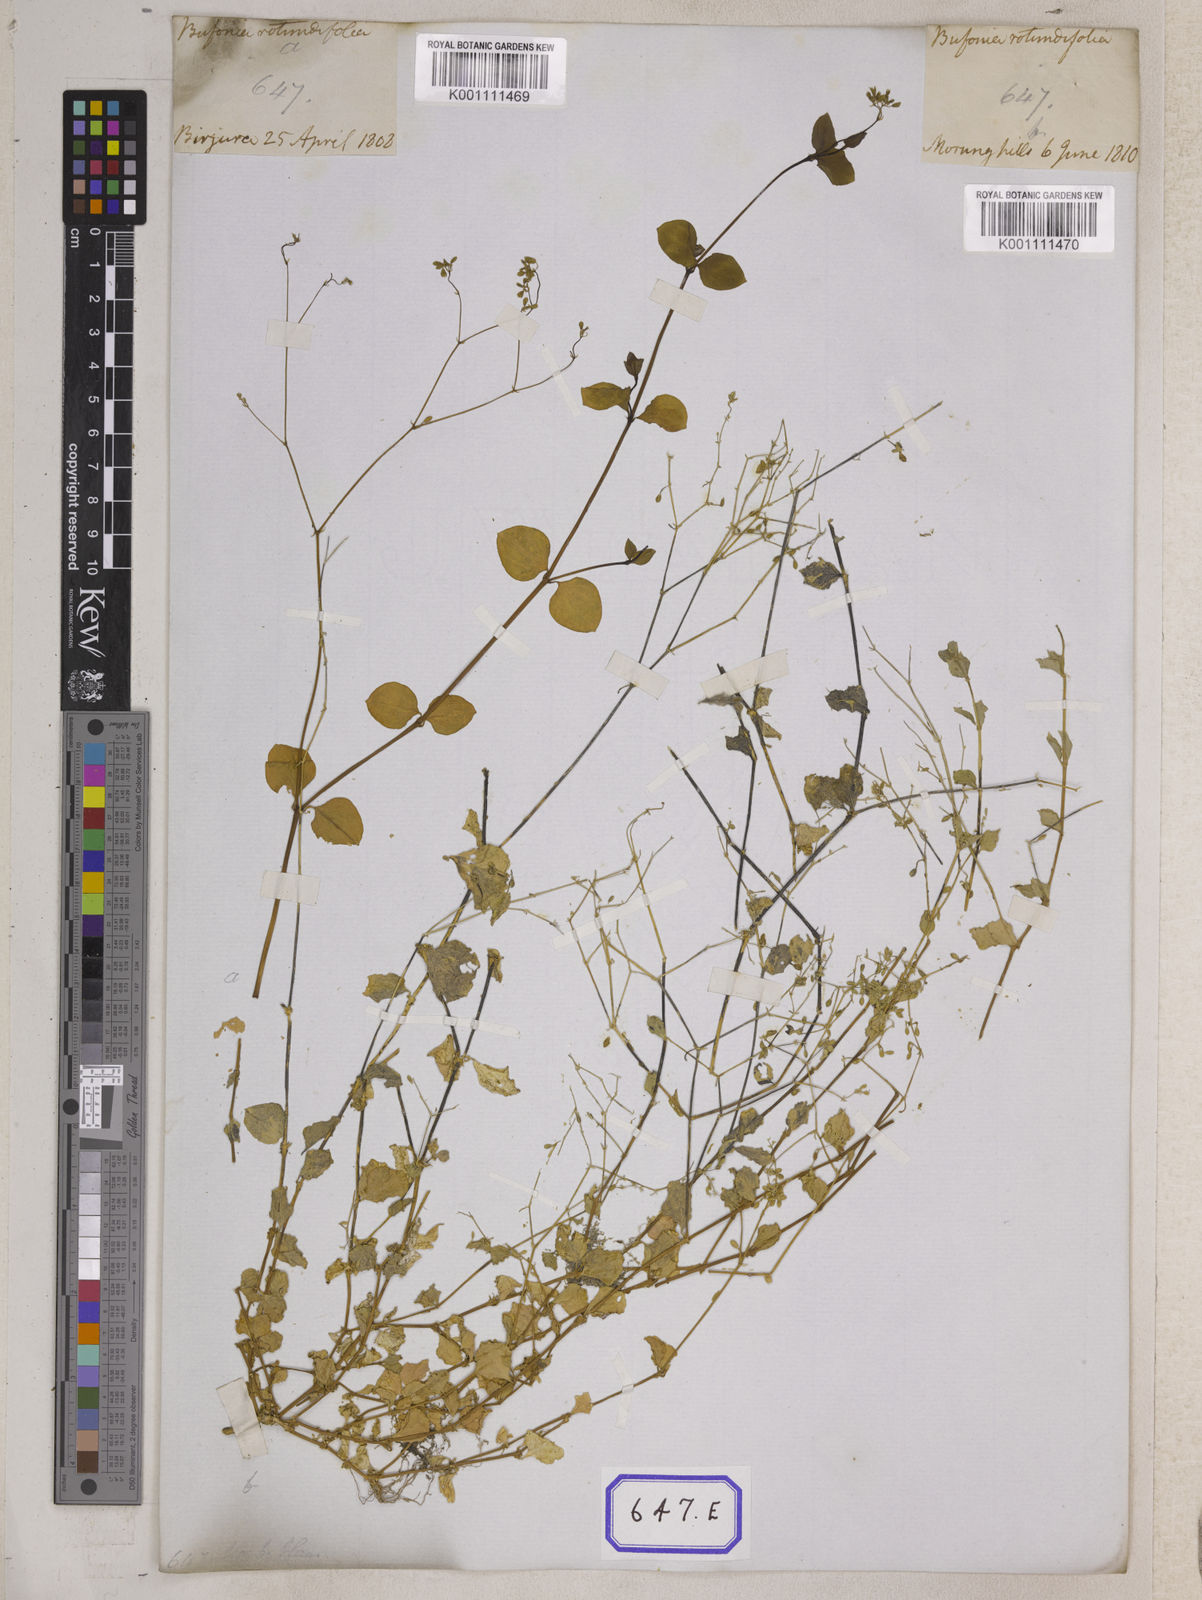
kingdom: Plantae
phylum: Tracheophyta
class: Magnoliopsida
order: Caryophyllales
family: Caryophyllaceae
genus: Drymaria
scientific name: Drymaria
